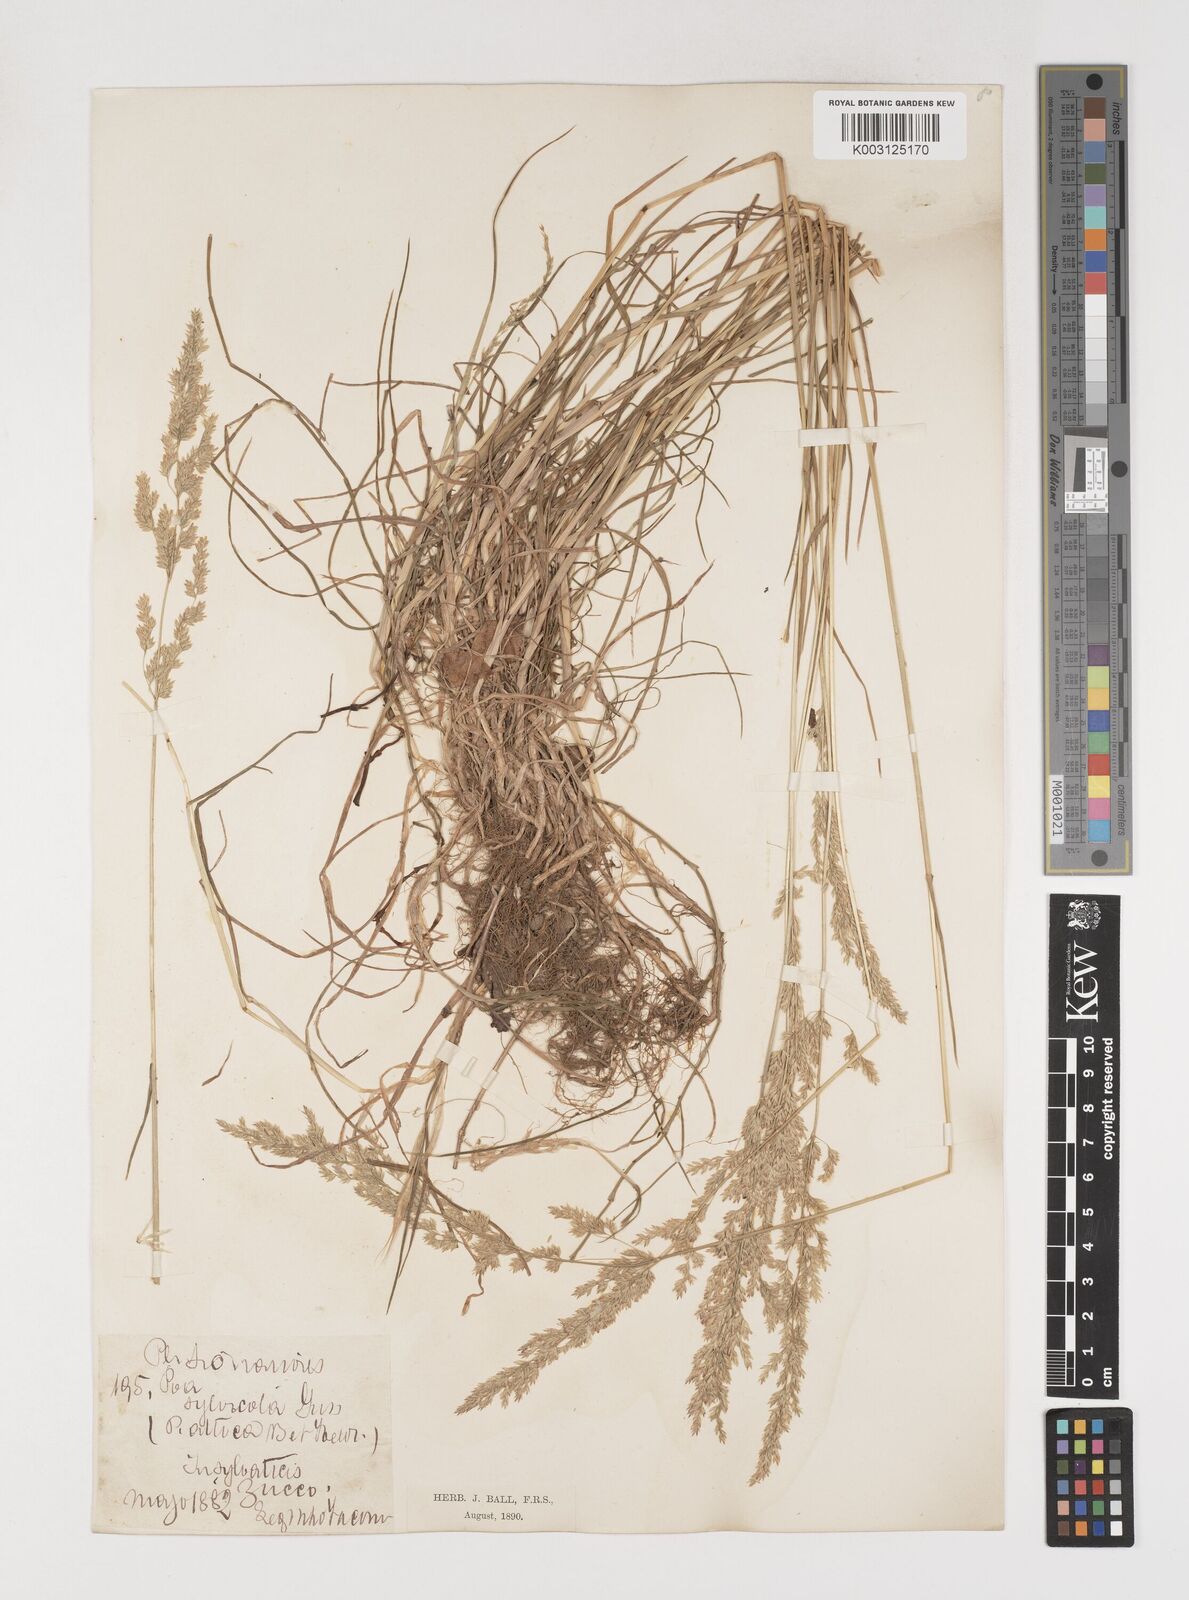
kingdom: Plantae
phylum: Tracheophyta
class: Liliopsida
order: Poales
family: Poaceae
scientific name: Poaceae
